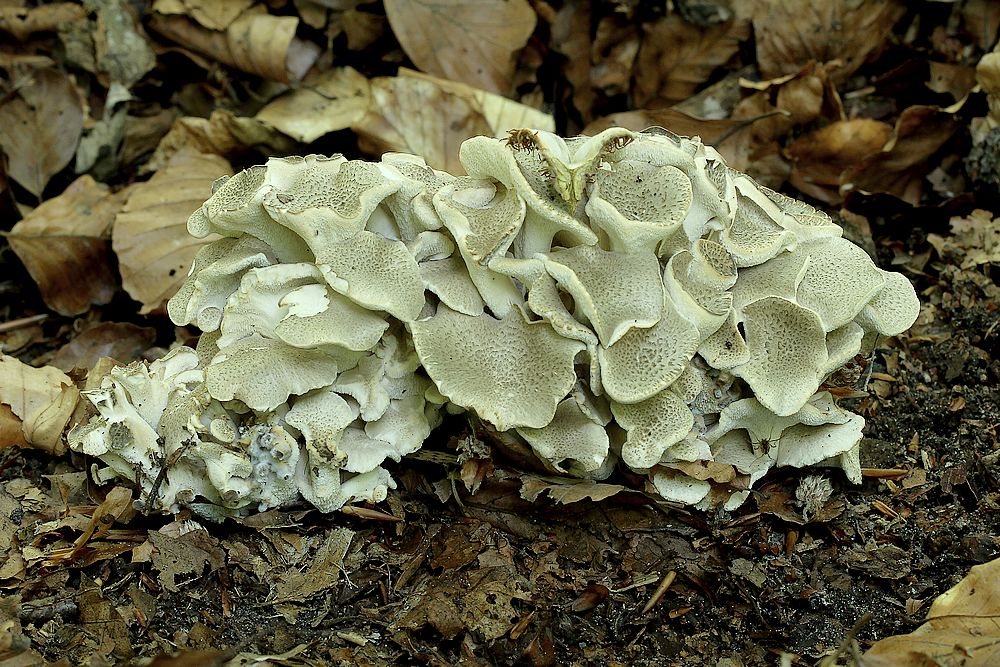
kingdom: Fungi
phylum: Basidiomycota
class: Agaricomycetes
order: Polyporales
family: Polyporaceae
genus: Polyporus
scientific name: Polyporus umbellatus
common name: skærmformet stilkporesvamp
